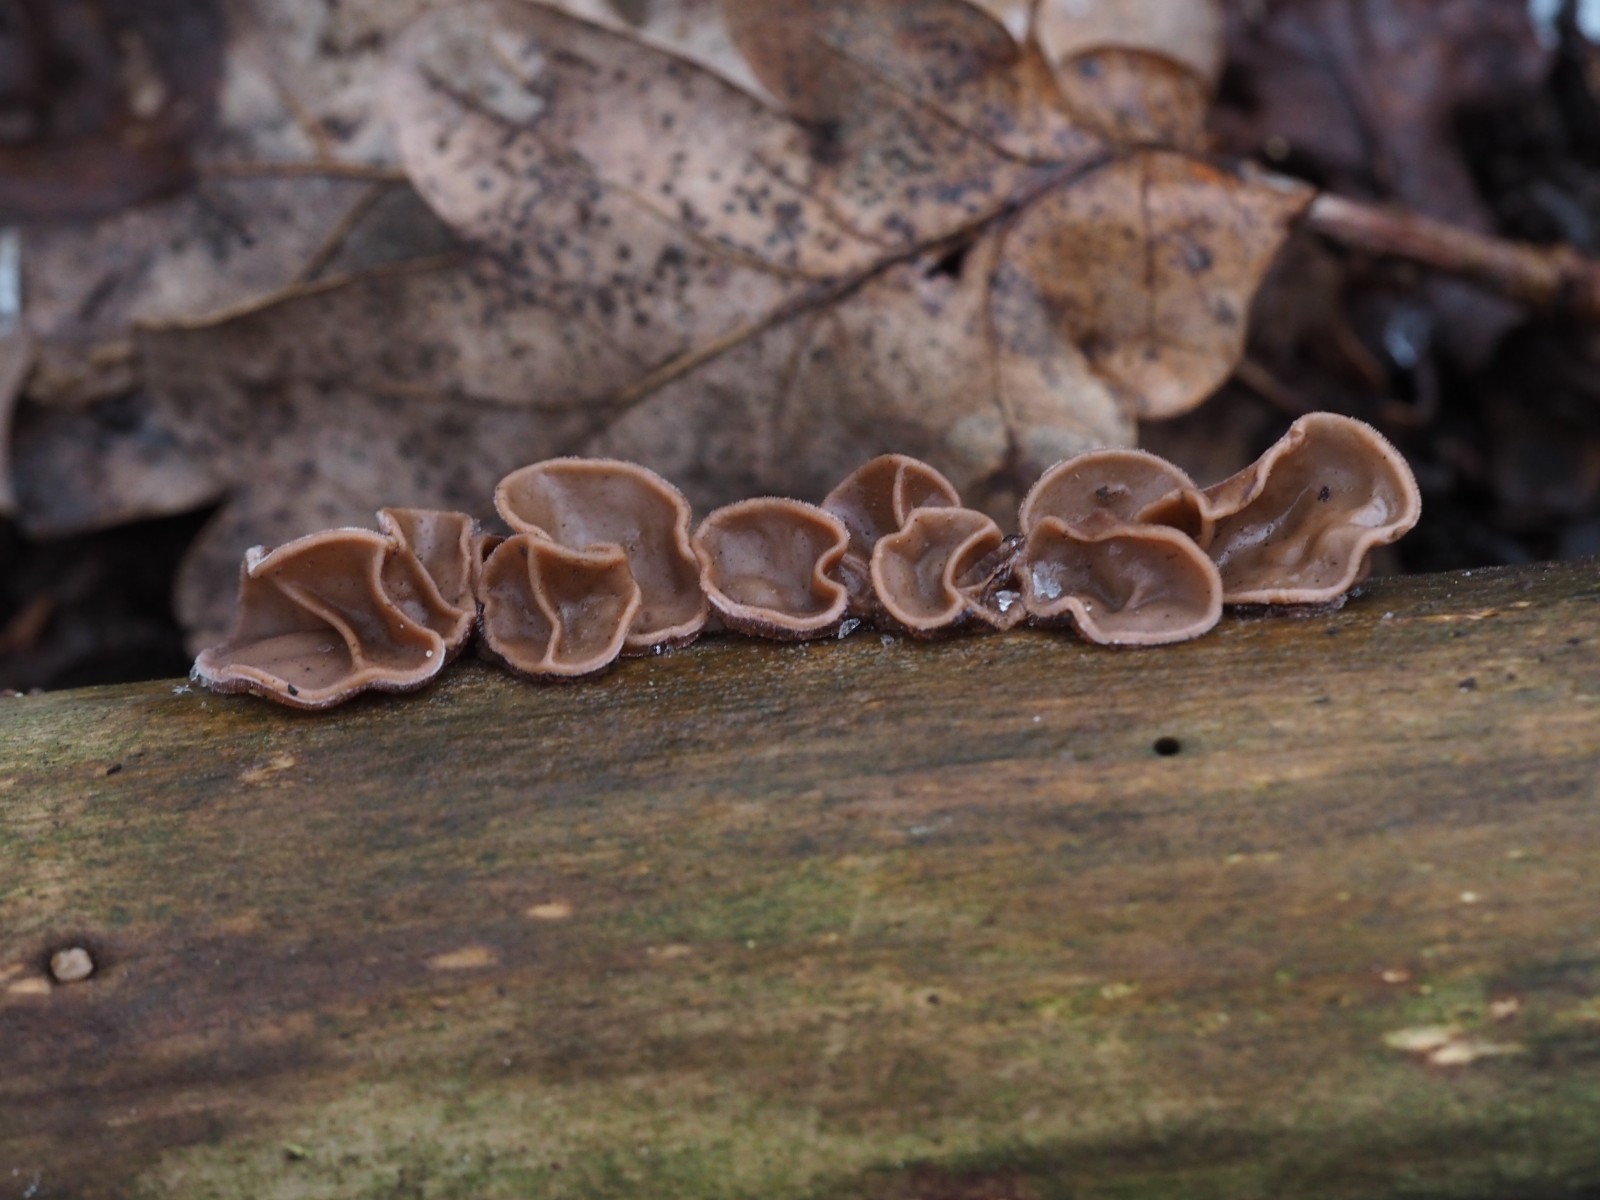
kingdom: Fungi
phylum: Basidiomycota
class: Agaricomycetes
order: Auriculariales
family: Auriculariaceae
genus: Auricularia
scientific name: Auricularia auricula-judae
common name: almindelig judasøre
